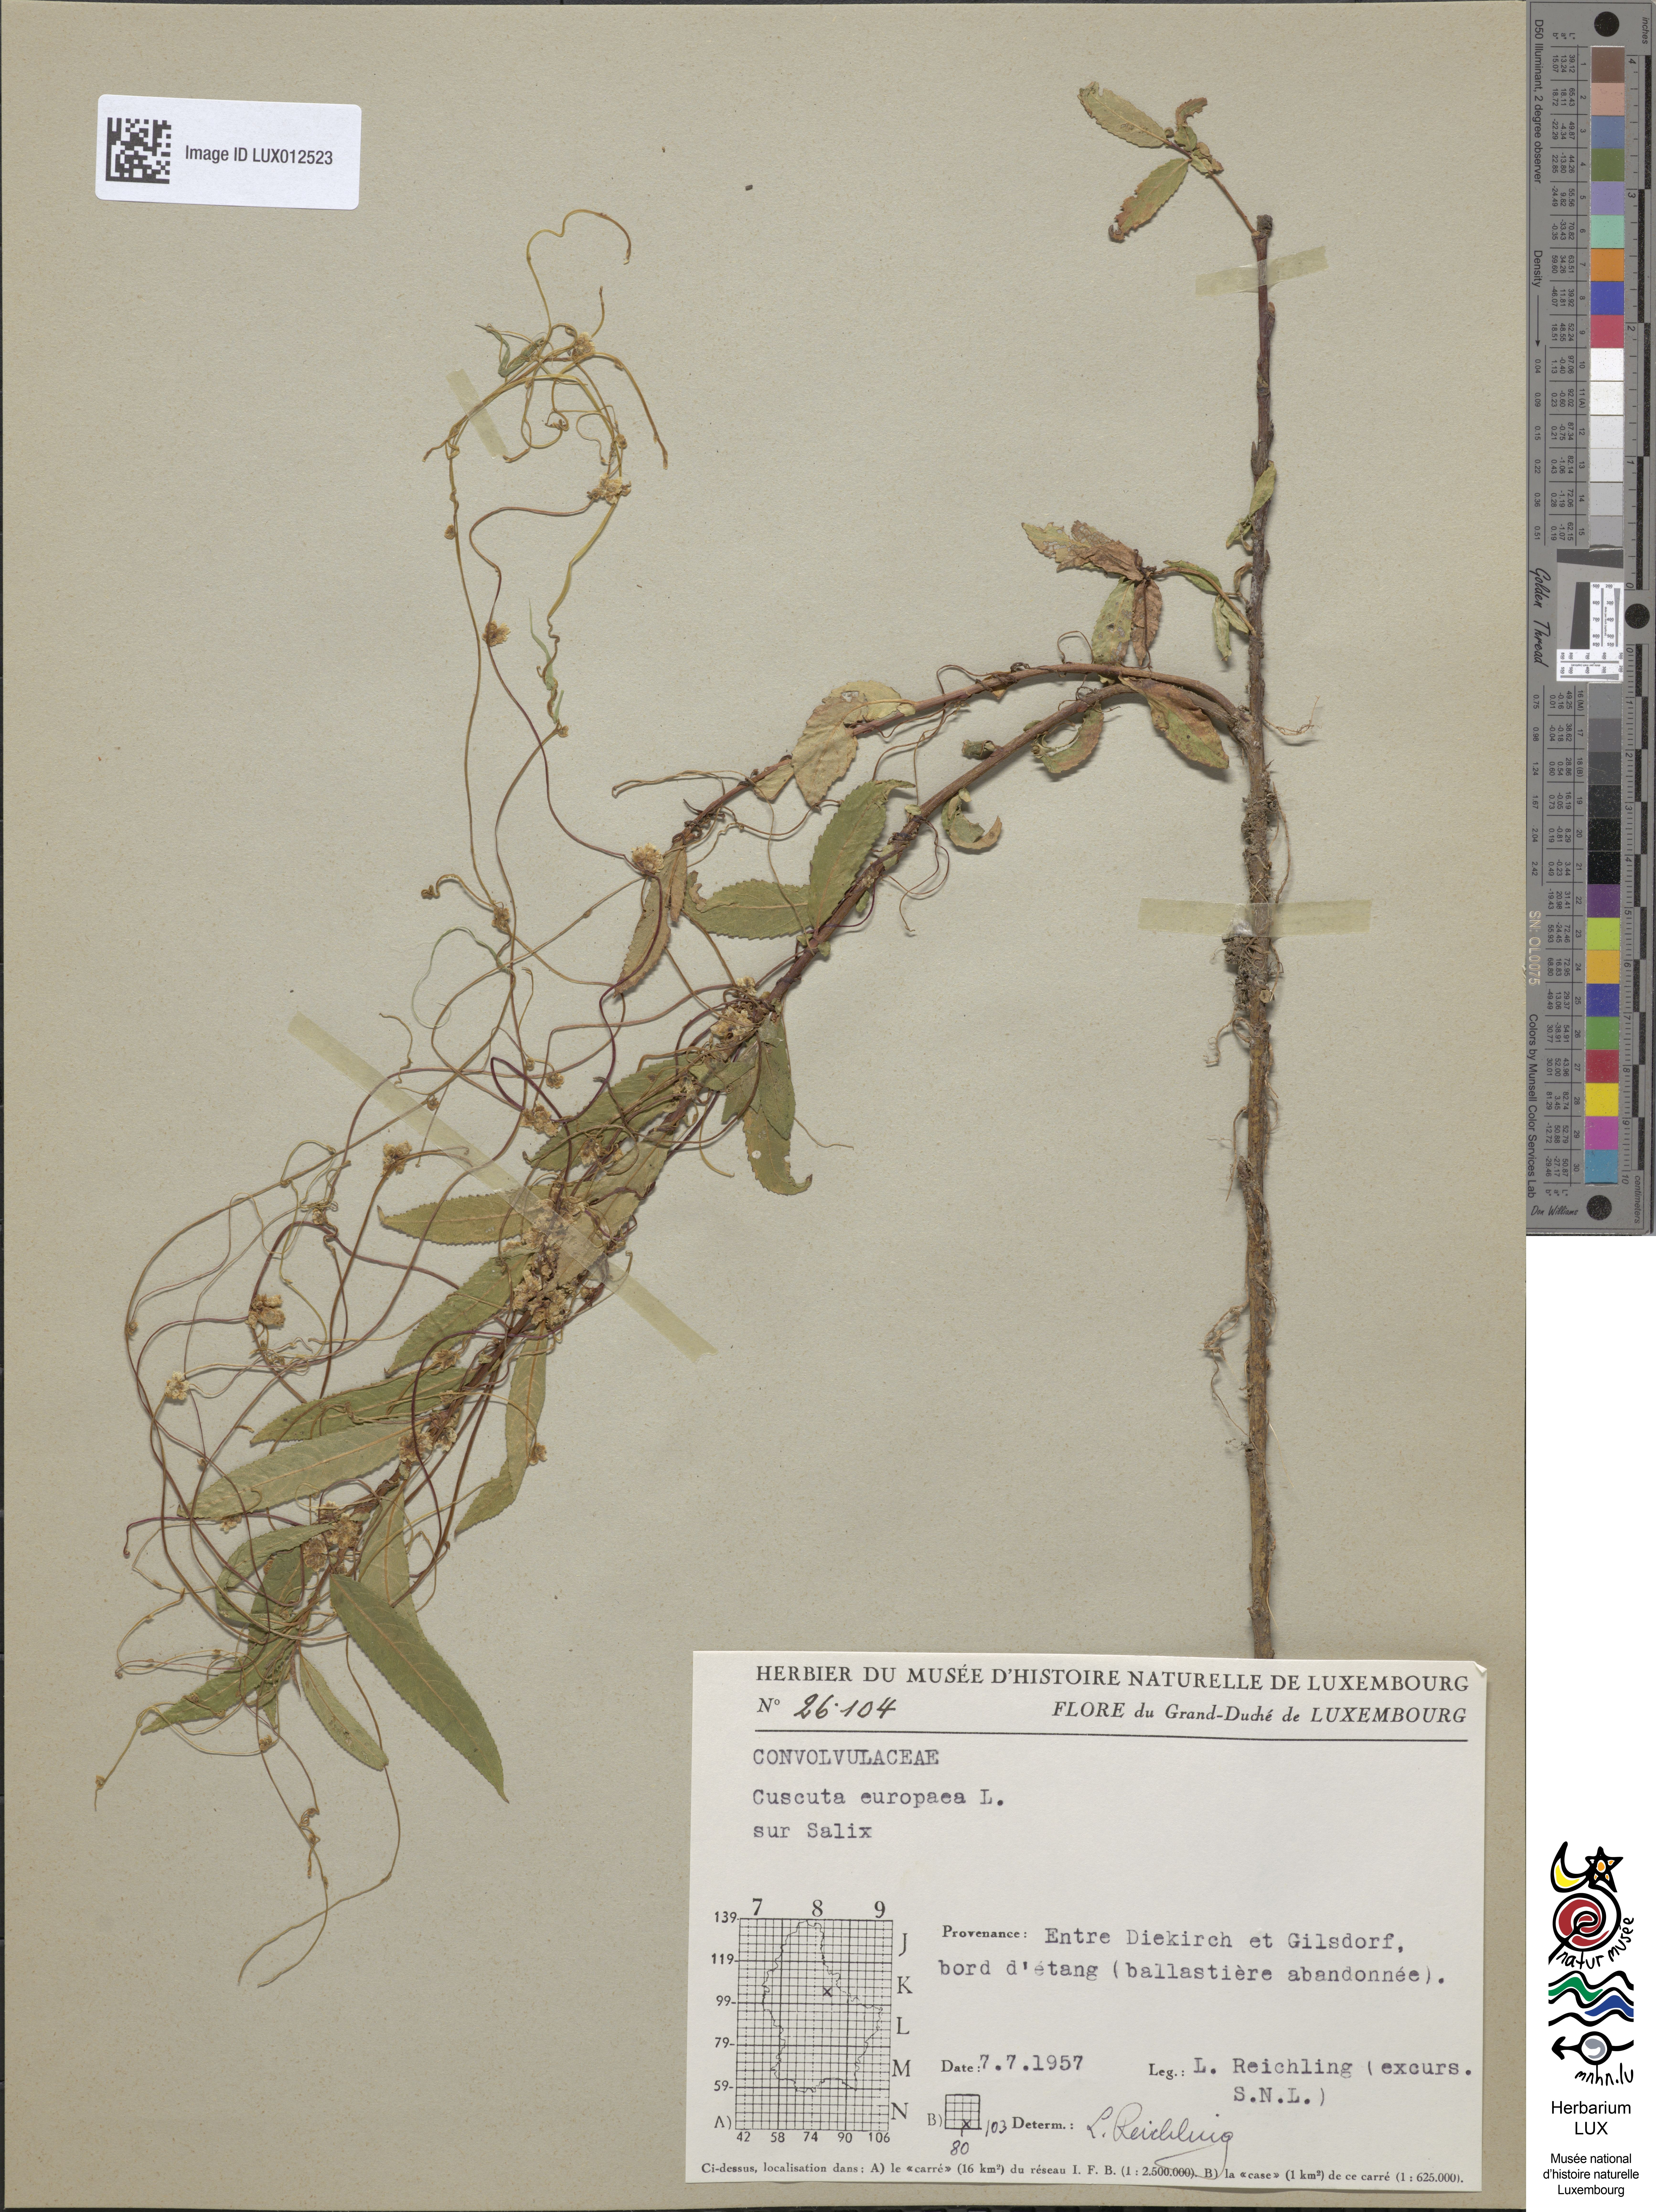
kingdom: Plantae
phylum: Tracheophyta
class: Magnoliopsida
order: Solanales
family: Convolvulaceae
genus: Cuscuta
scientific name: Cuscuta europaea
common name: Greater dodder
